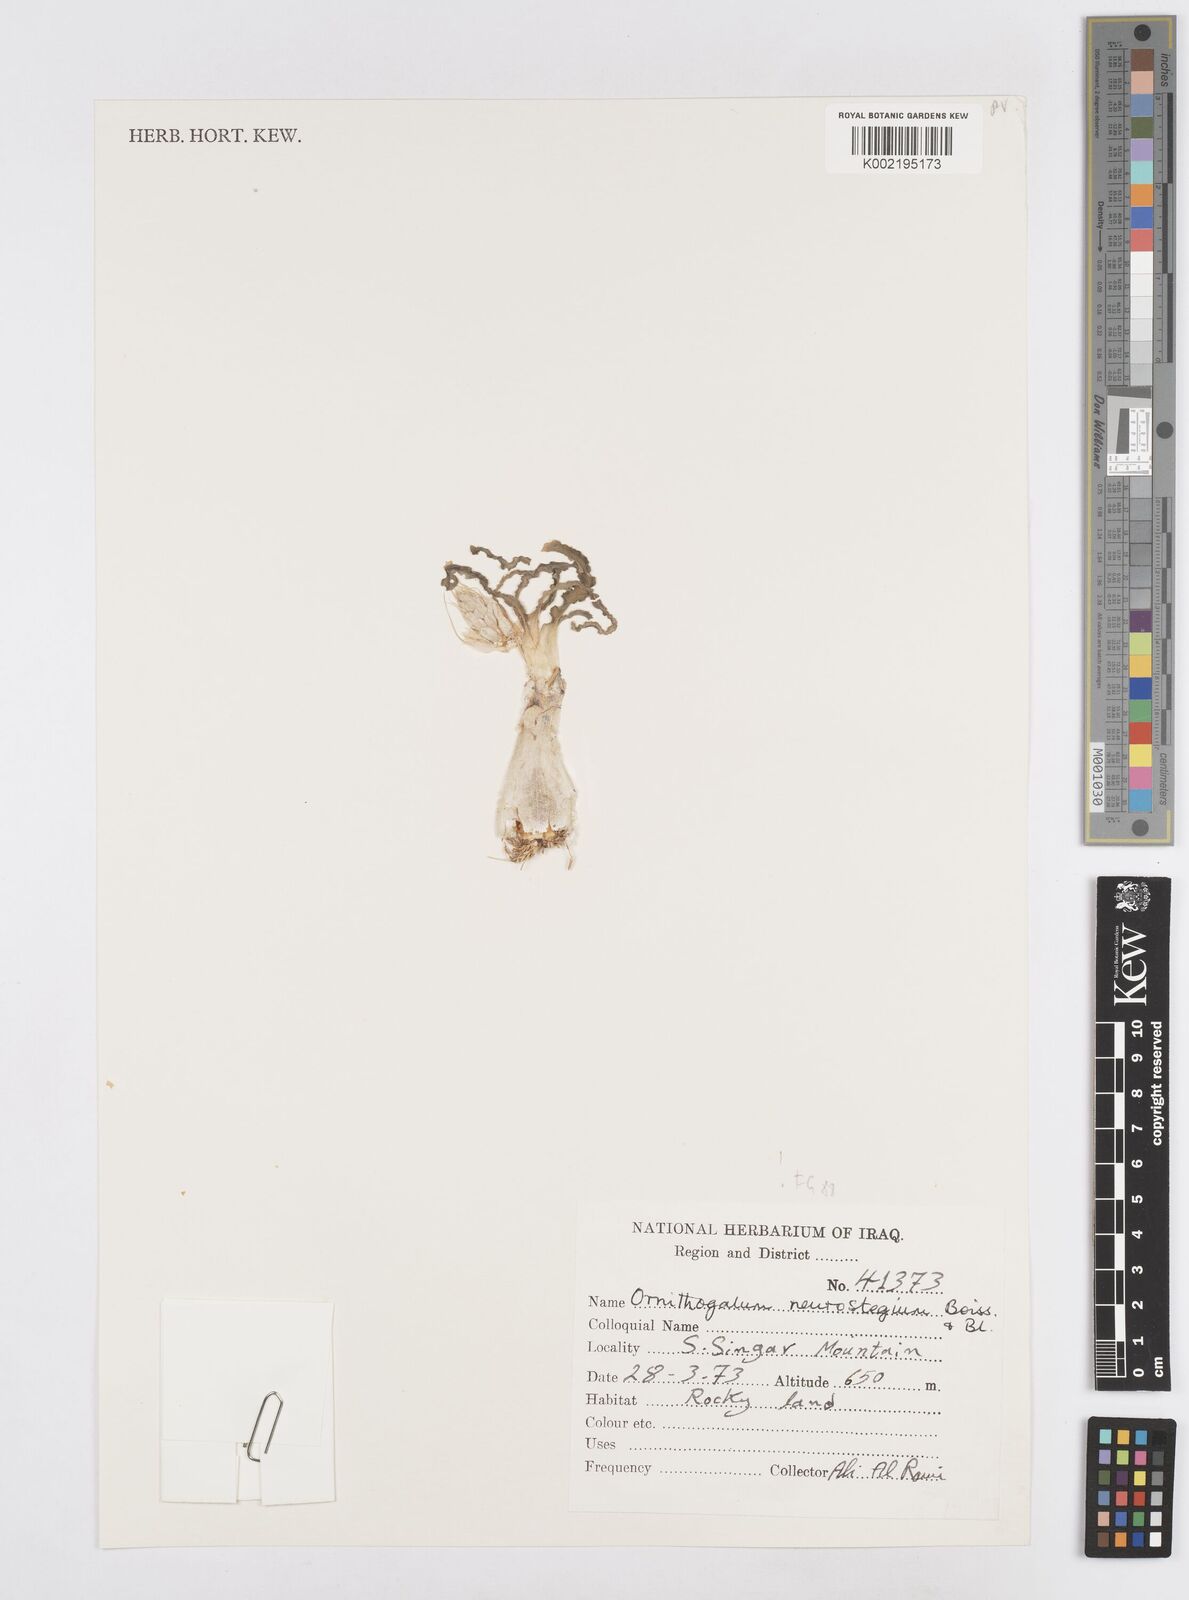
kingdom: Plantae
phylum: Tracheophyta
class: Liliopsida
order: Asparagales
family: Asparagaceae
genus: Ornithogalum
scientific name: Ornithogalum neurostegium
